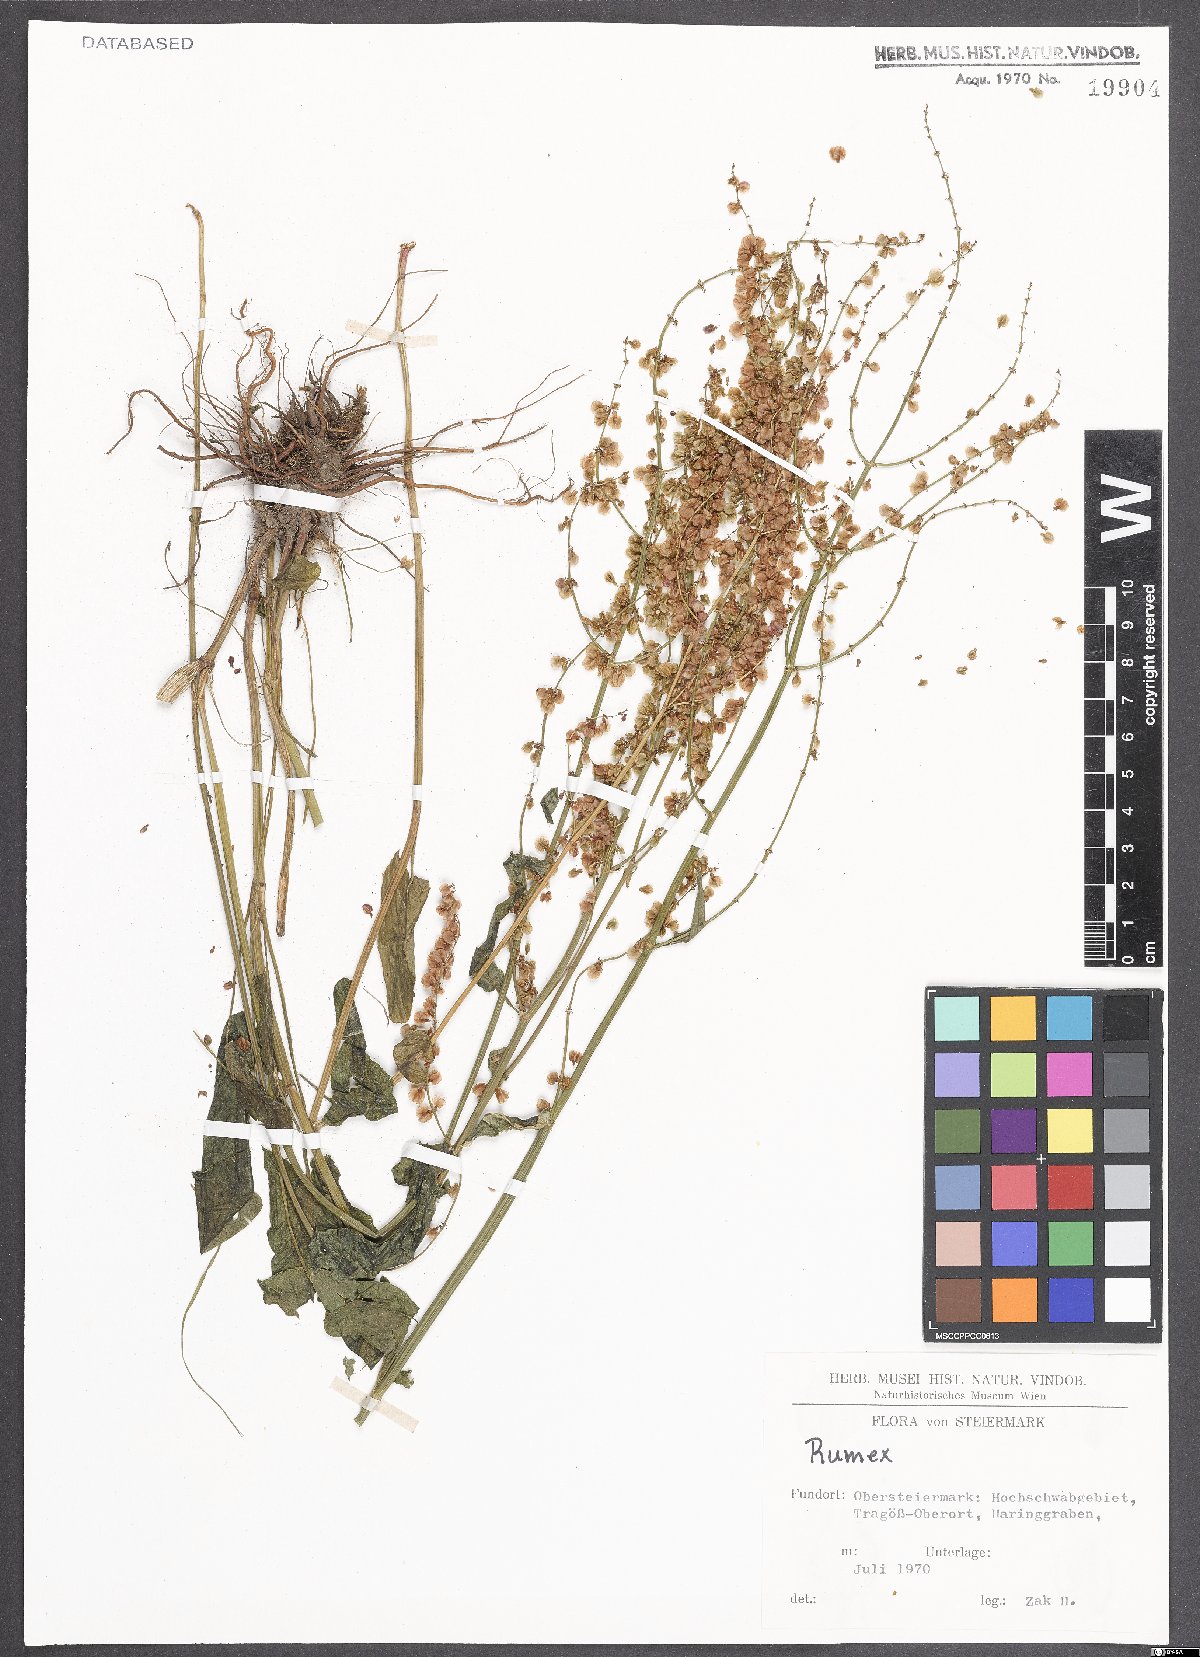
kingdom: Plantae
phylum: Tracheophyta
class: Magnoliopsida
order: Caryophyllales
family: Polygonaceae
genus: Rumex
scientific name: Rumex acetosa
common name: Garden sorrel
